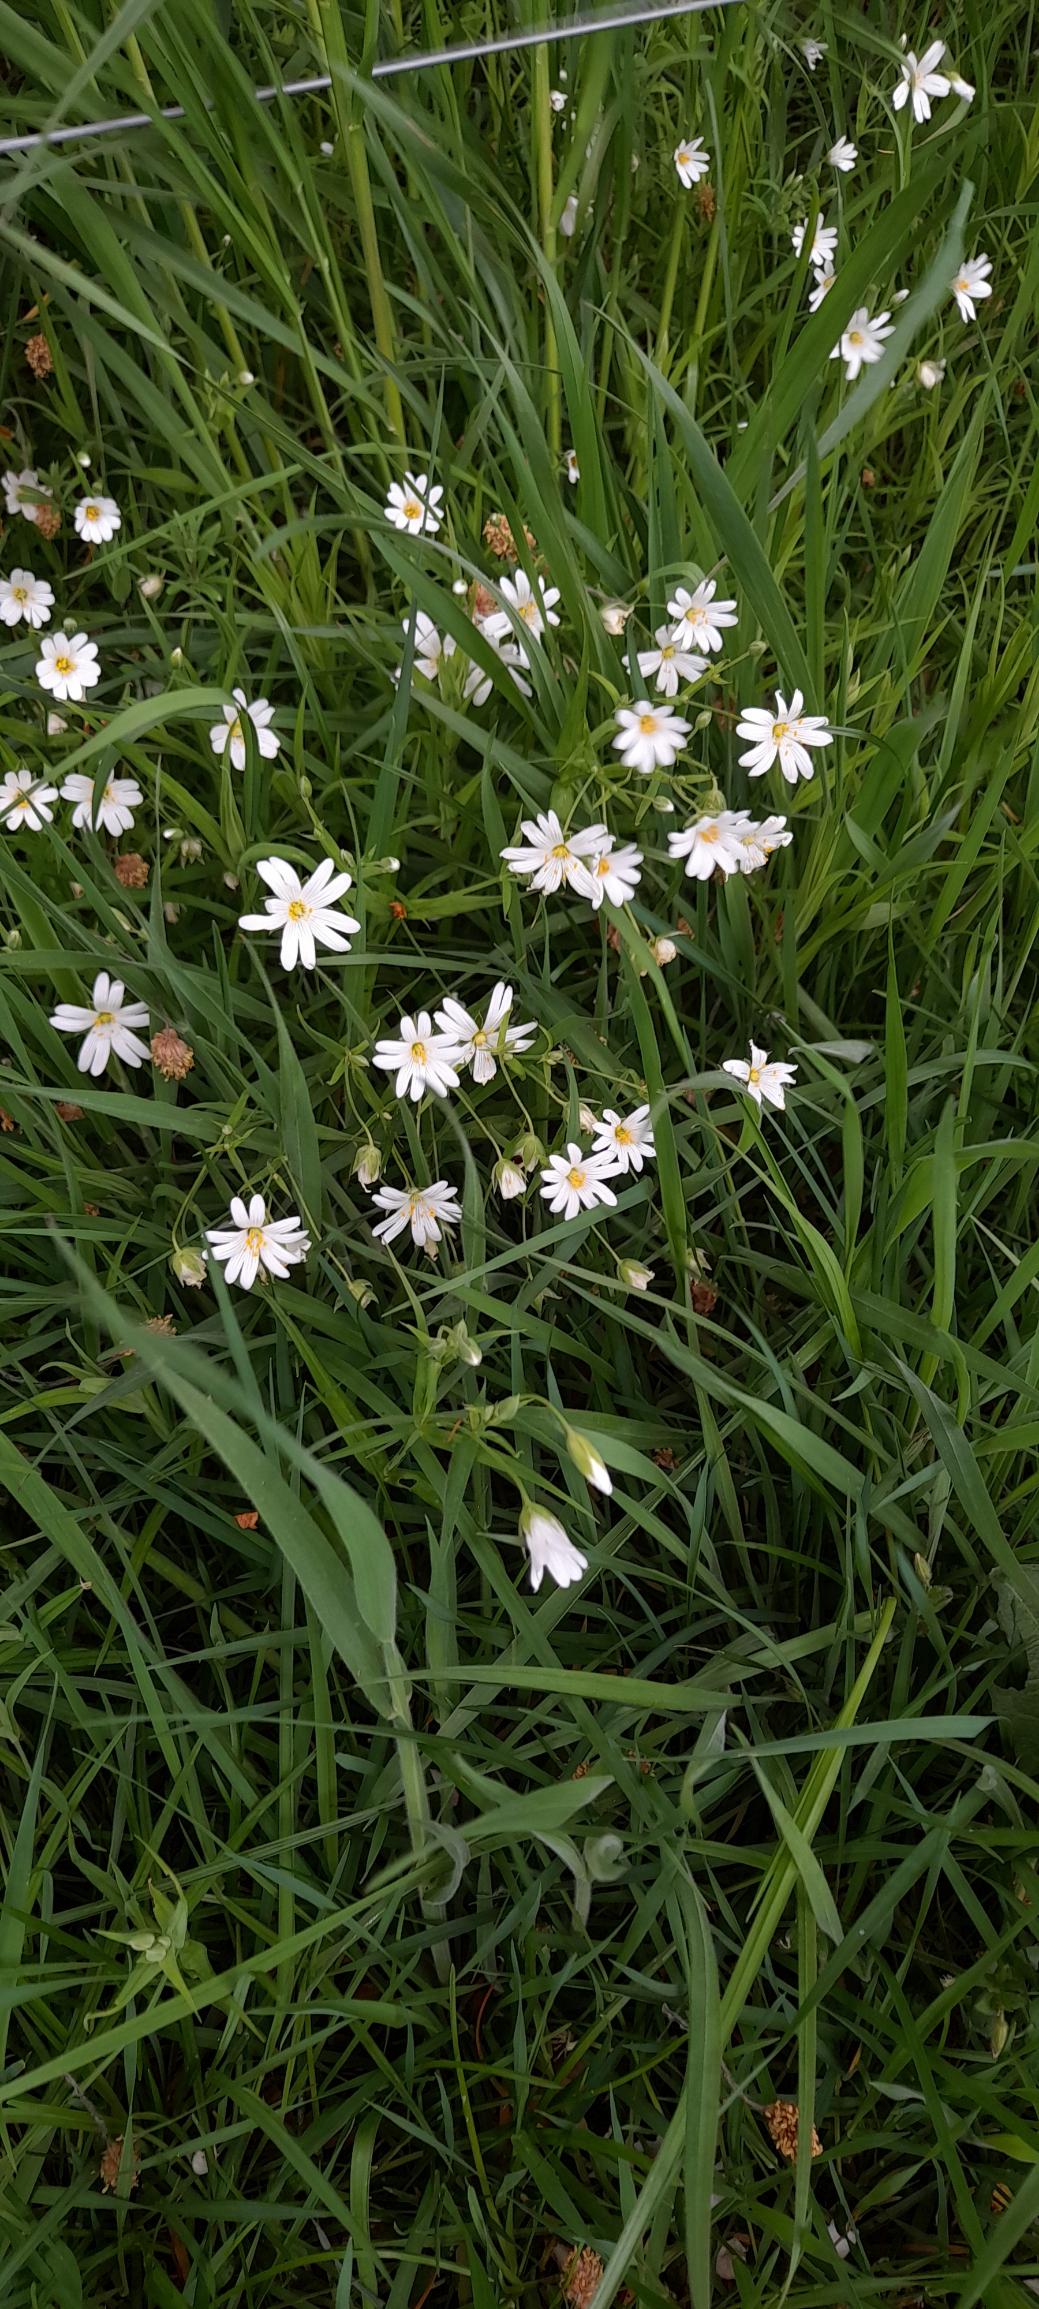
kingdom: Plantae
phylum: Tracheophyta
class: Magnoliopsida
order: Caryophyllales
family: Caryophyllaceae
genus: Rabelera
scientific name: Rabelera holostea
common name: Stor fladstjerne
